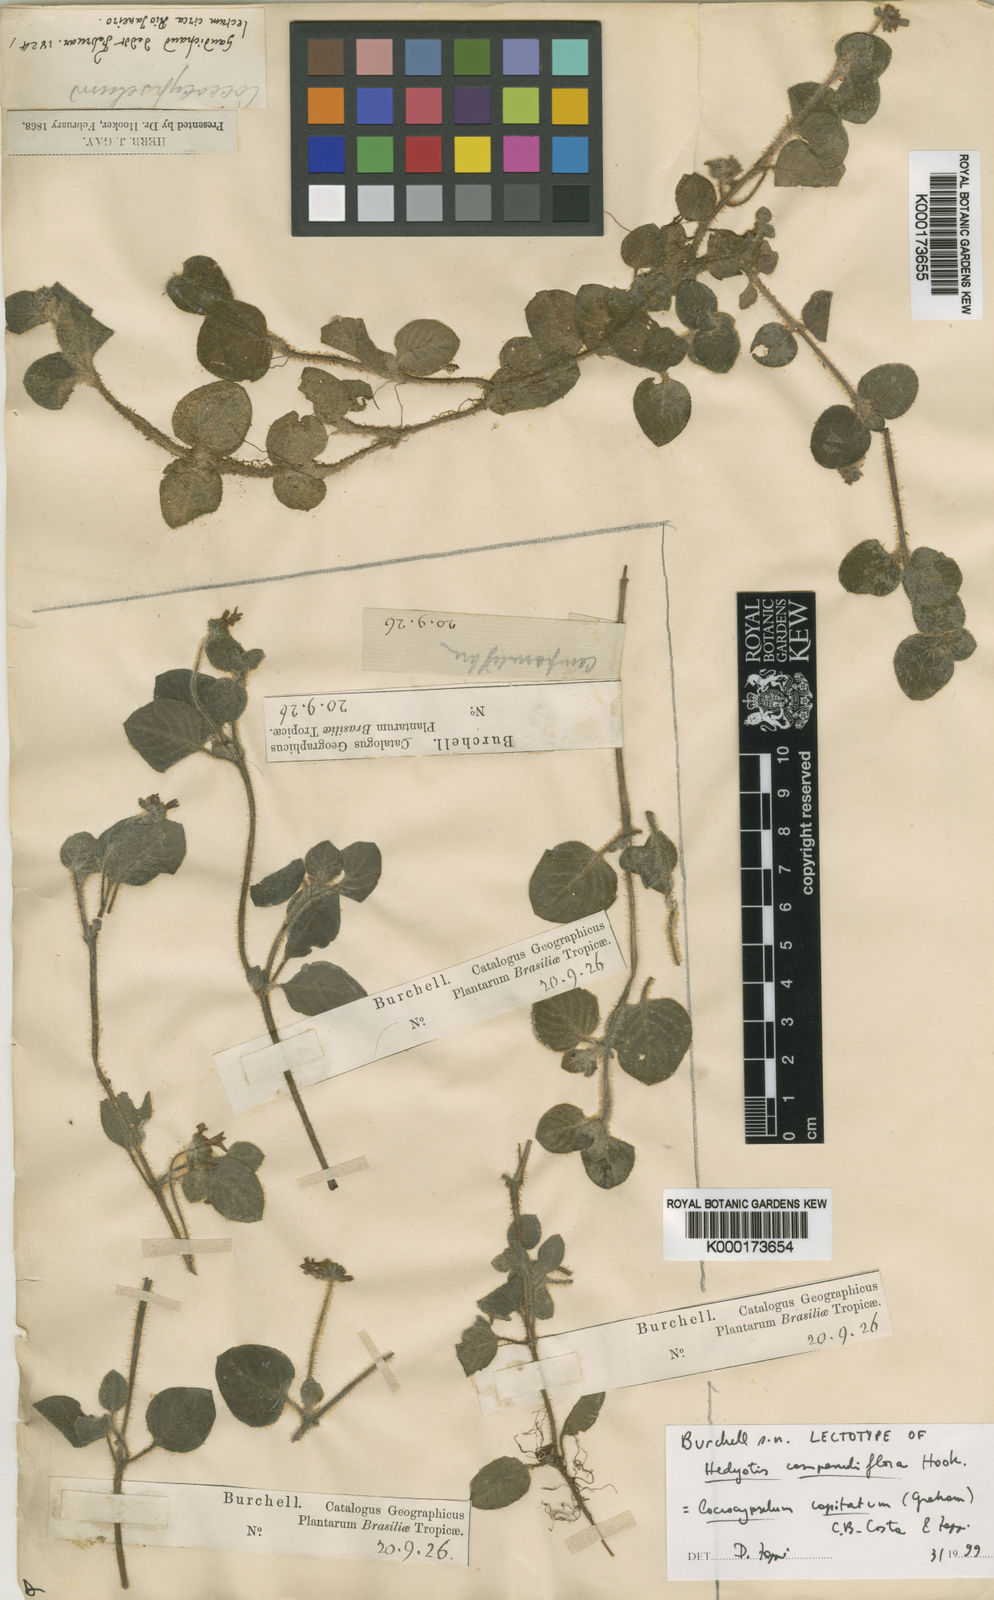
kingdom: Plantae
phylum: Tracheophyta
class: Magnoliopsida
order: Gentianales
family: Rubiaceae
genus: Coccocypselum
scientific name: Coccocypselum
